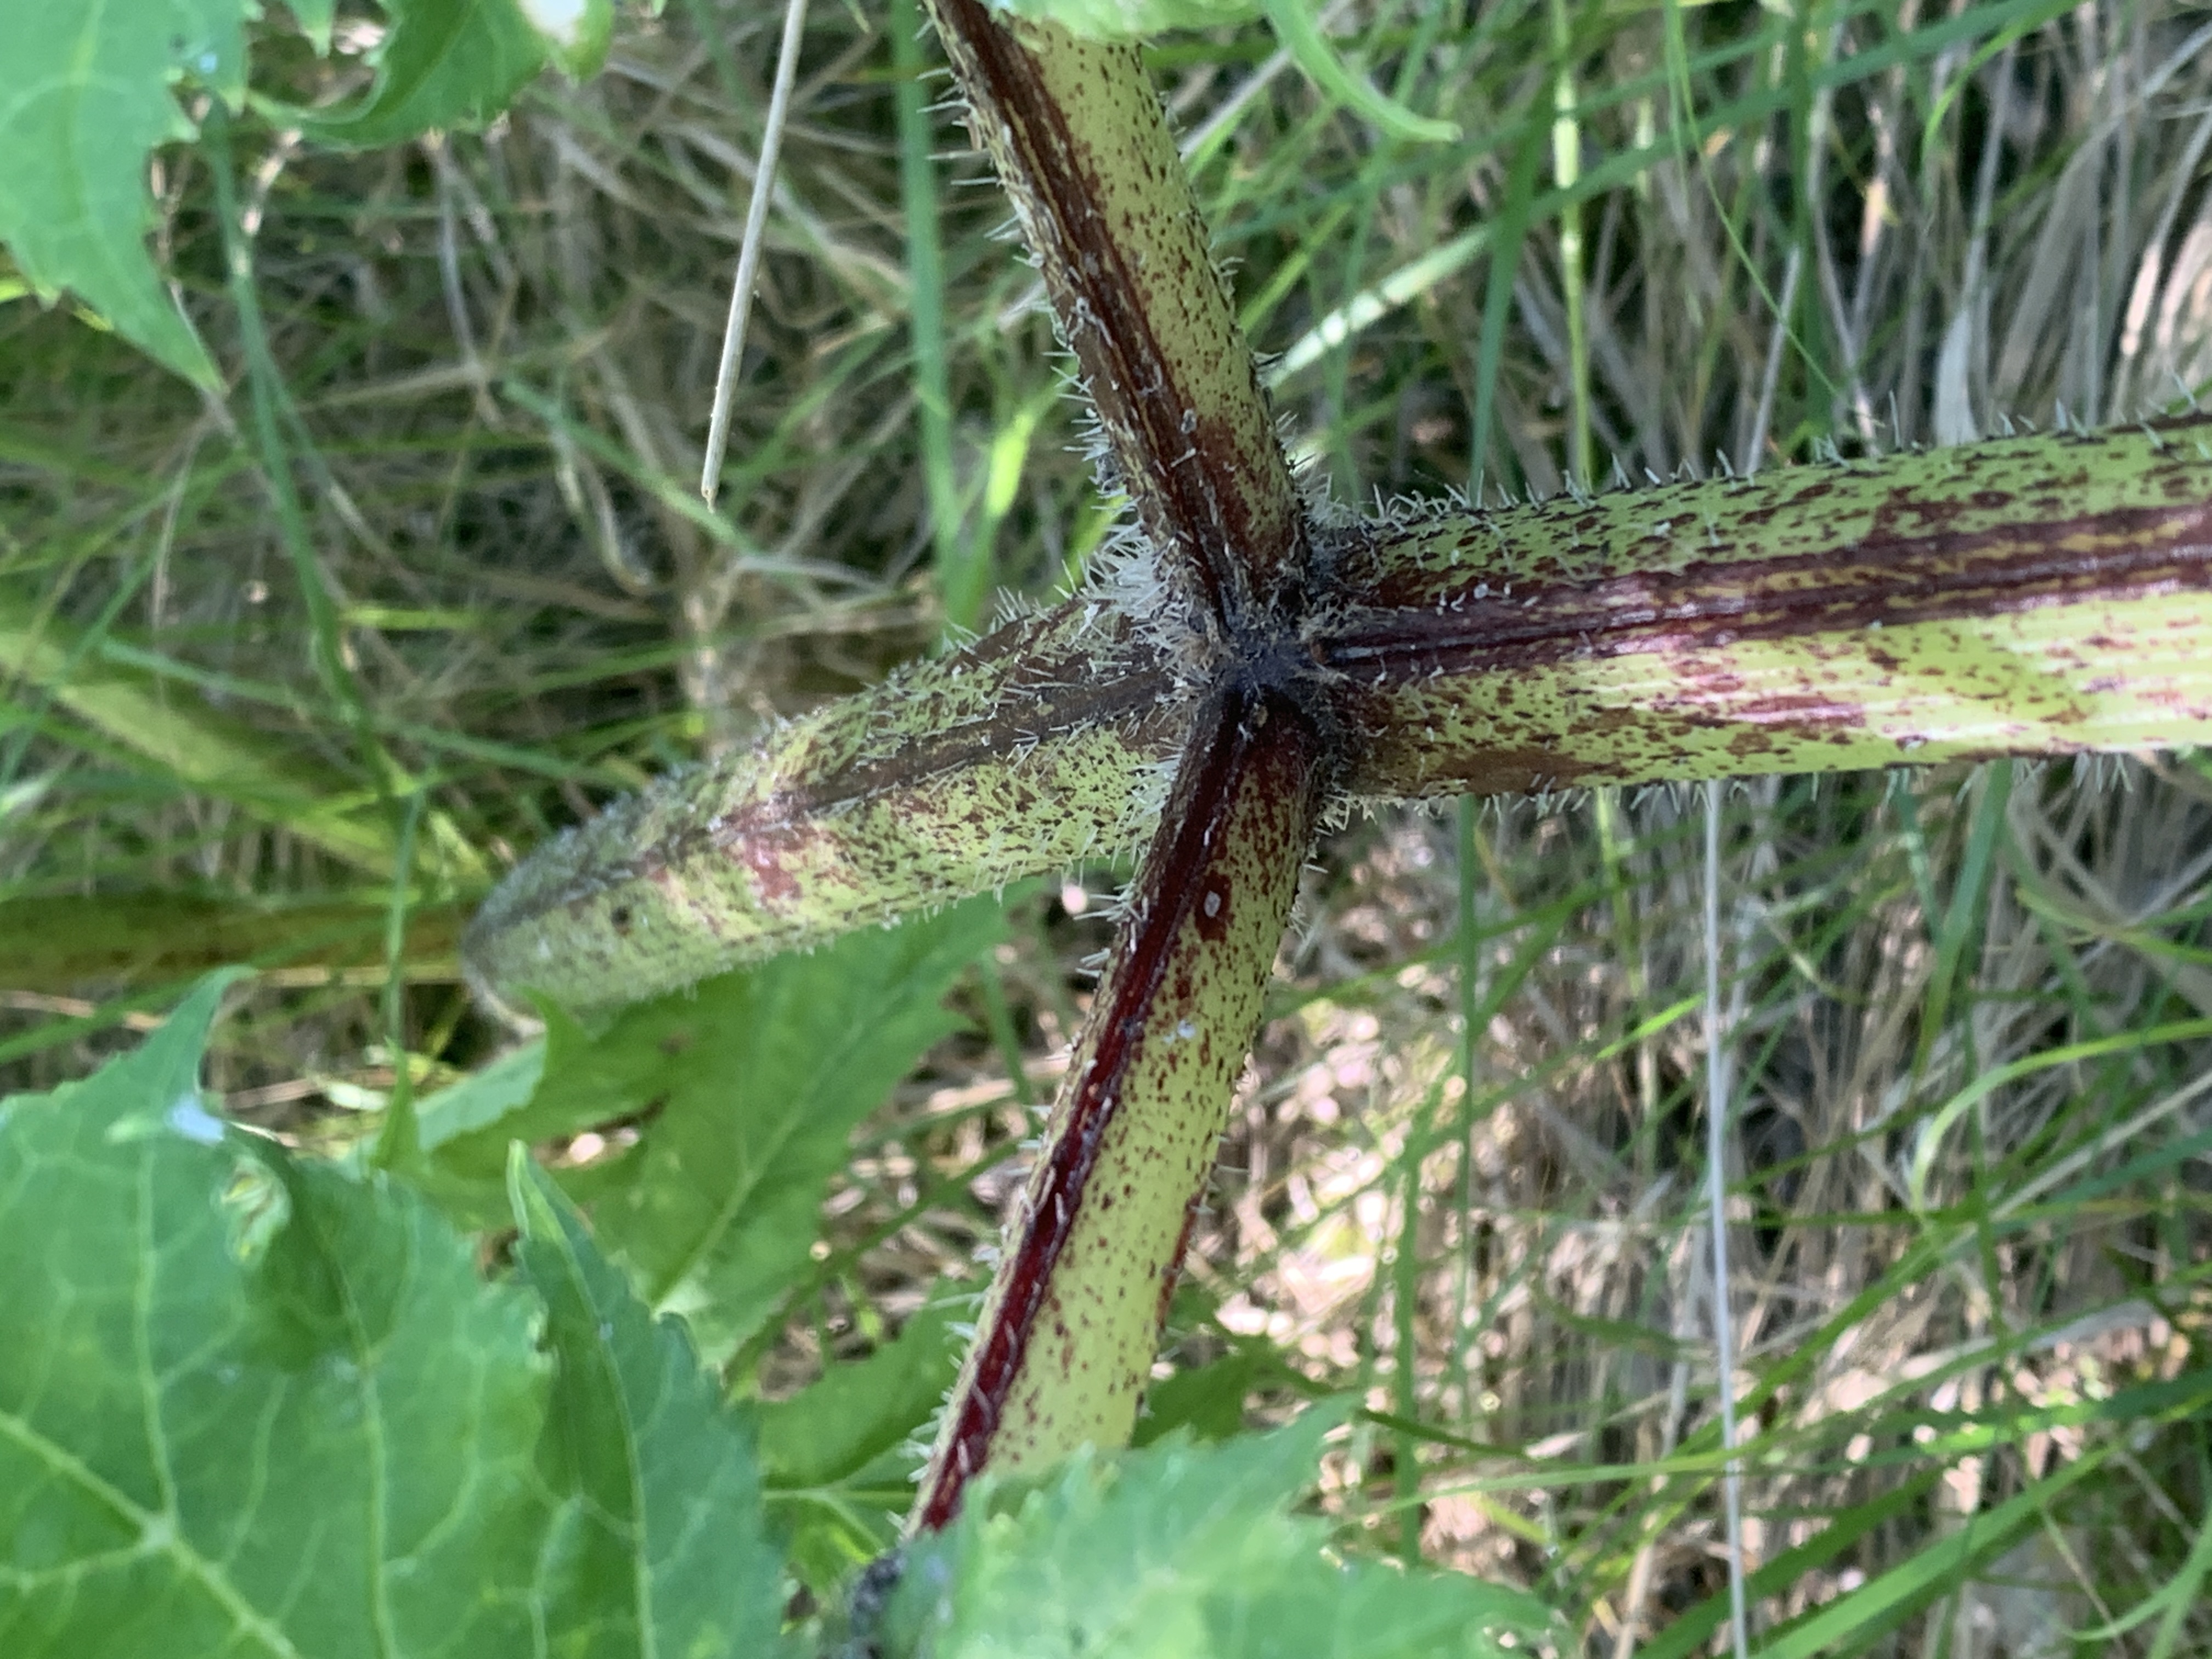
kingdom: Plantae
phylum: Tracheophyta
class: Magnoliopsida
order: Apiales
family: Apiaceae
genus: Heracleum
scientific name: Heracleum mantegazzianum
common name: Kæmpe-bjørneklo
